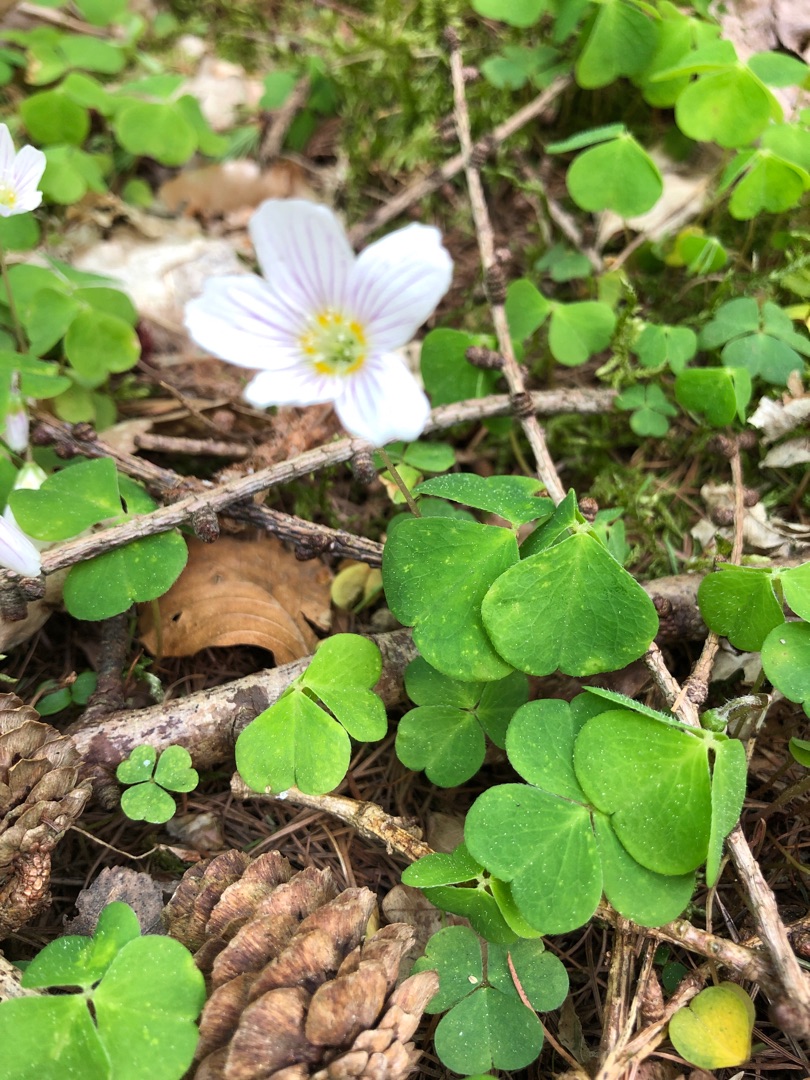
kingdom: Plantae
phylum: Tracheophyta
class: Magnoliopsida
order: Oxalidales
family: Oxalidaceae
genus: Oxalis
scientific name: Oxalis acetosella
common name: Skovsyre
